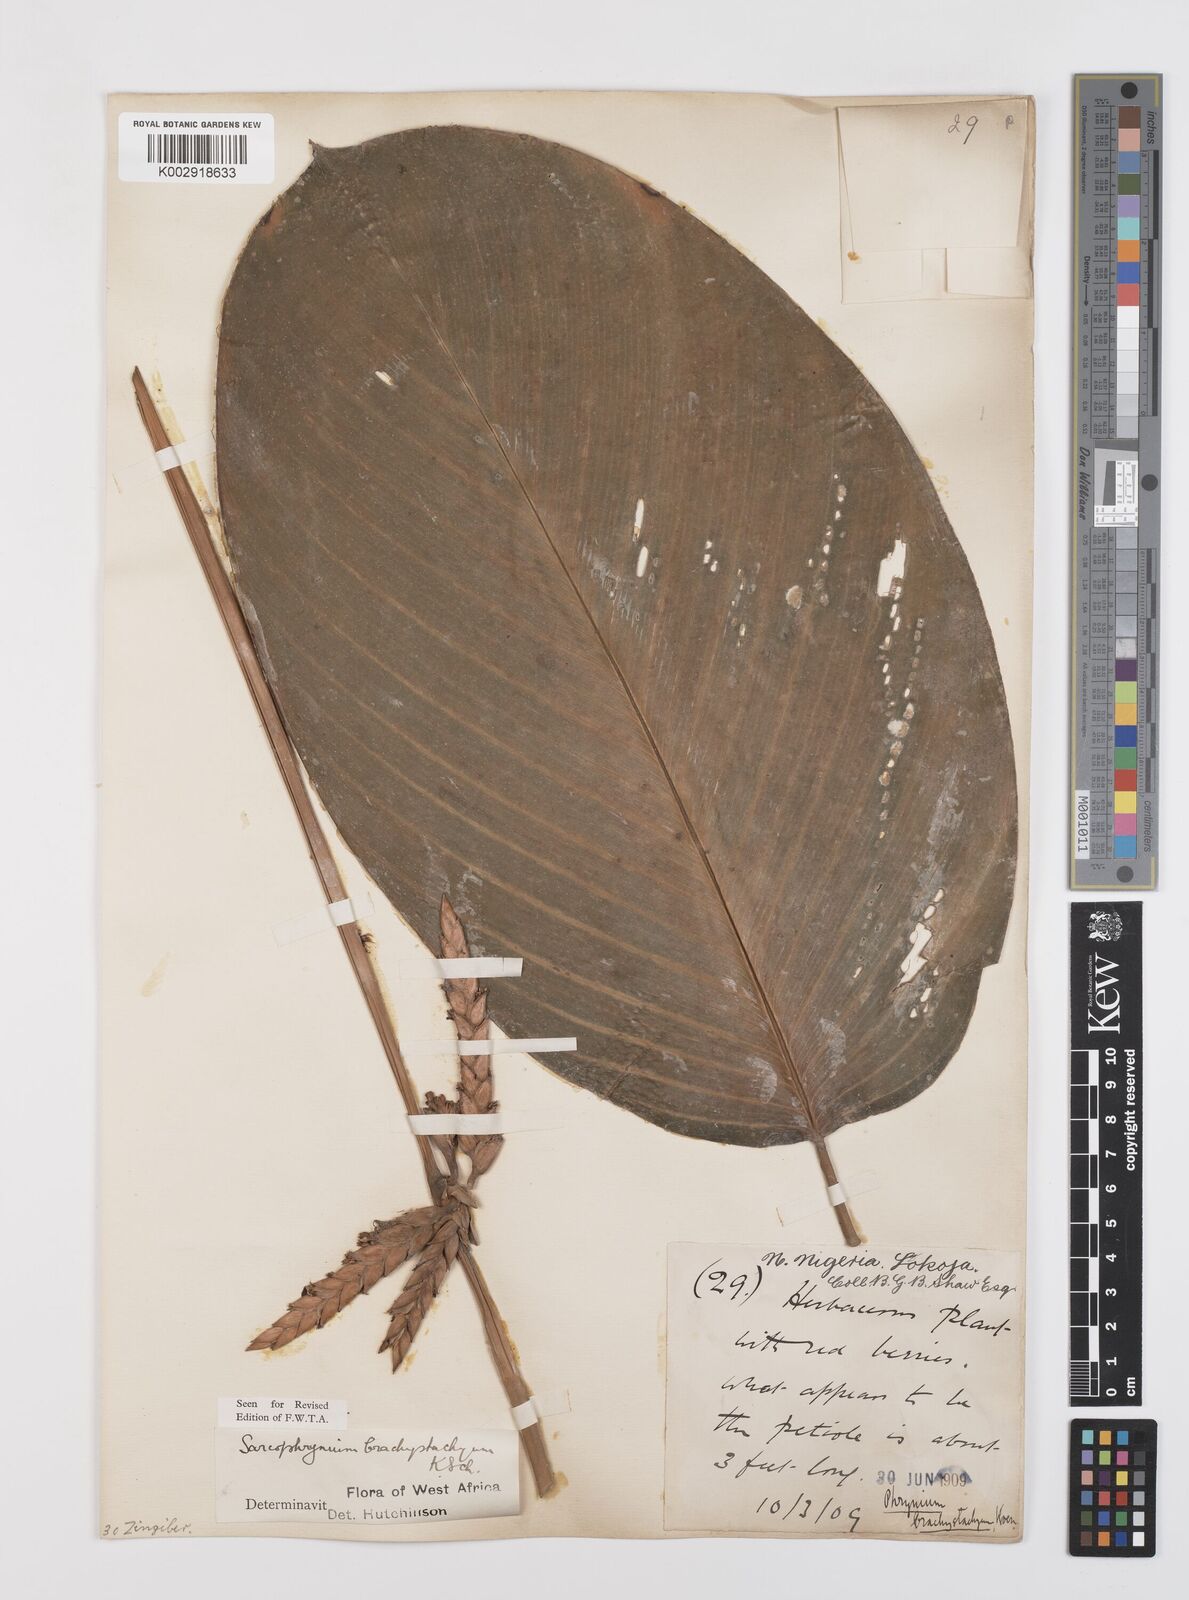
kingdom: Plantae
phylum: Tracheophyta
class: Liliopsida
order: Zingiberales
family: Marantaceae
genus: Sarcophrynium
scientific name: Sarcophrynium brachystachyum
